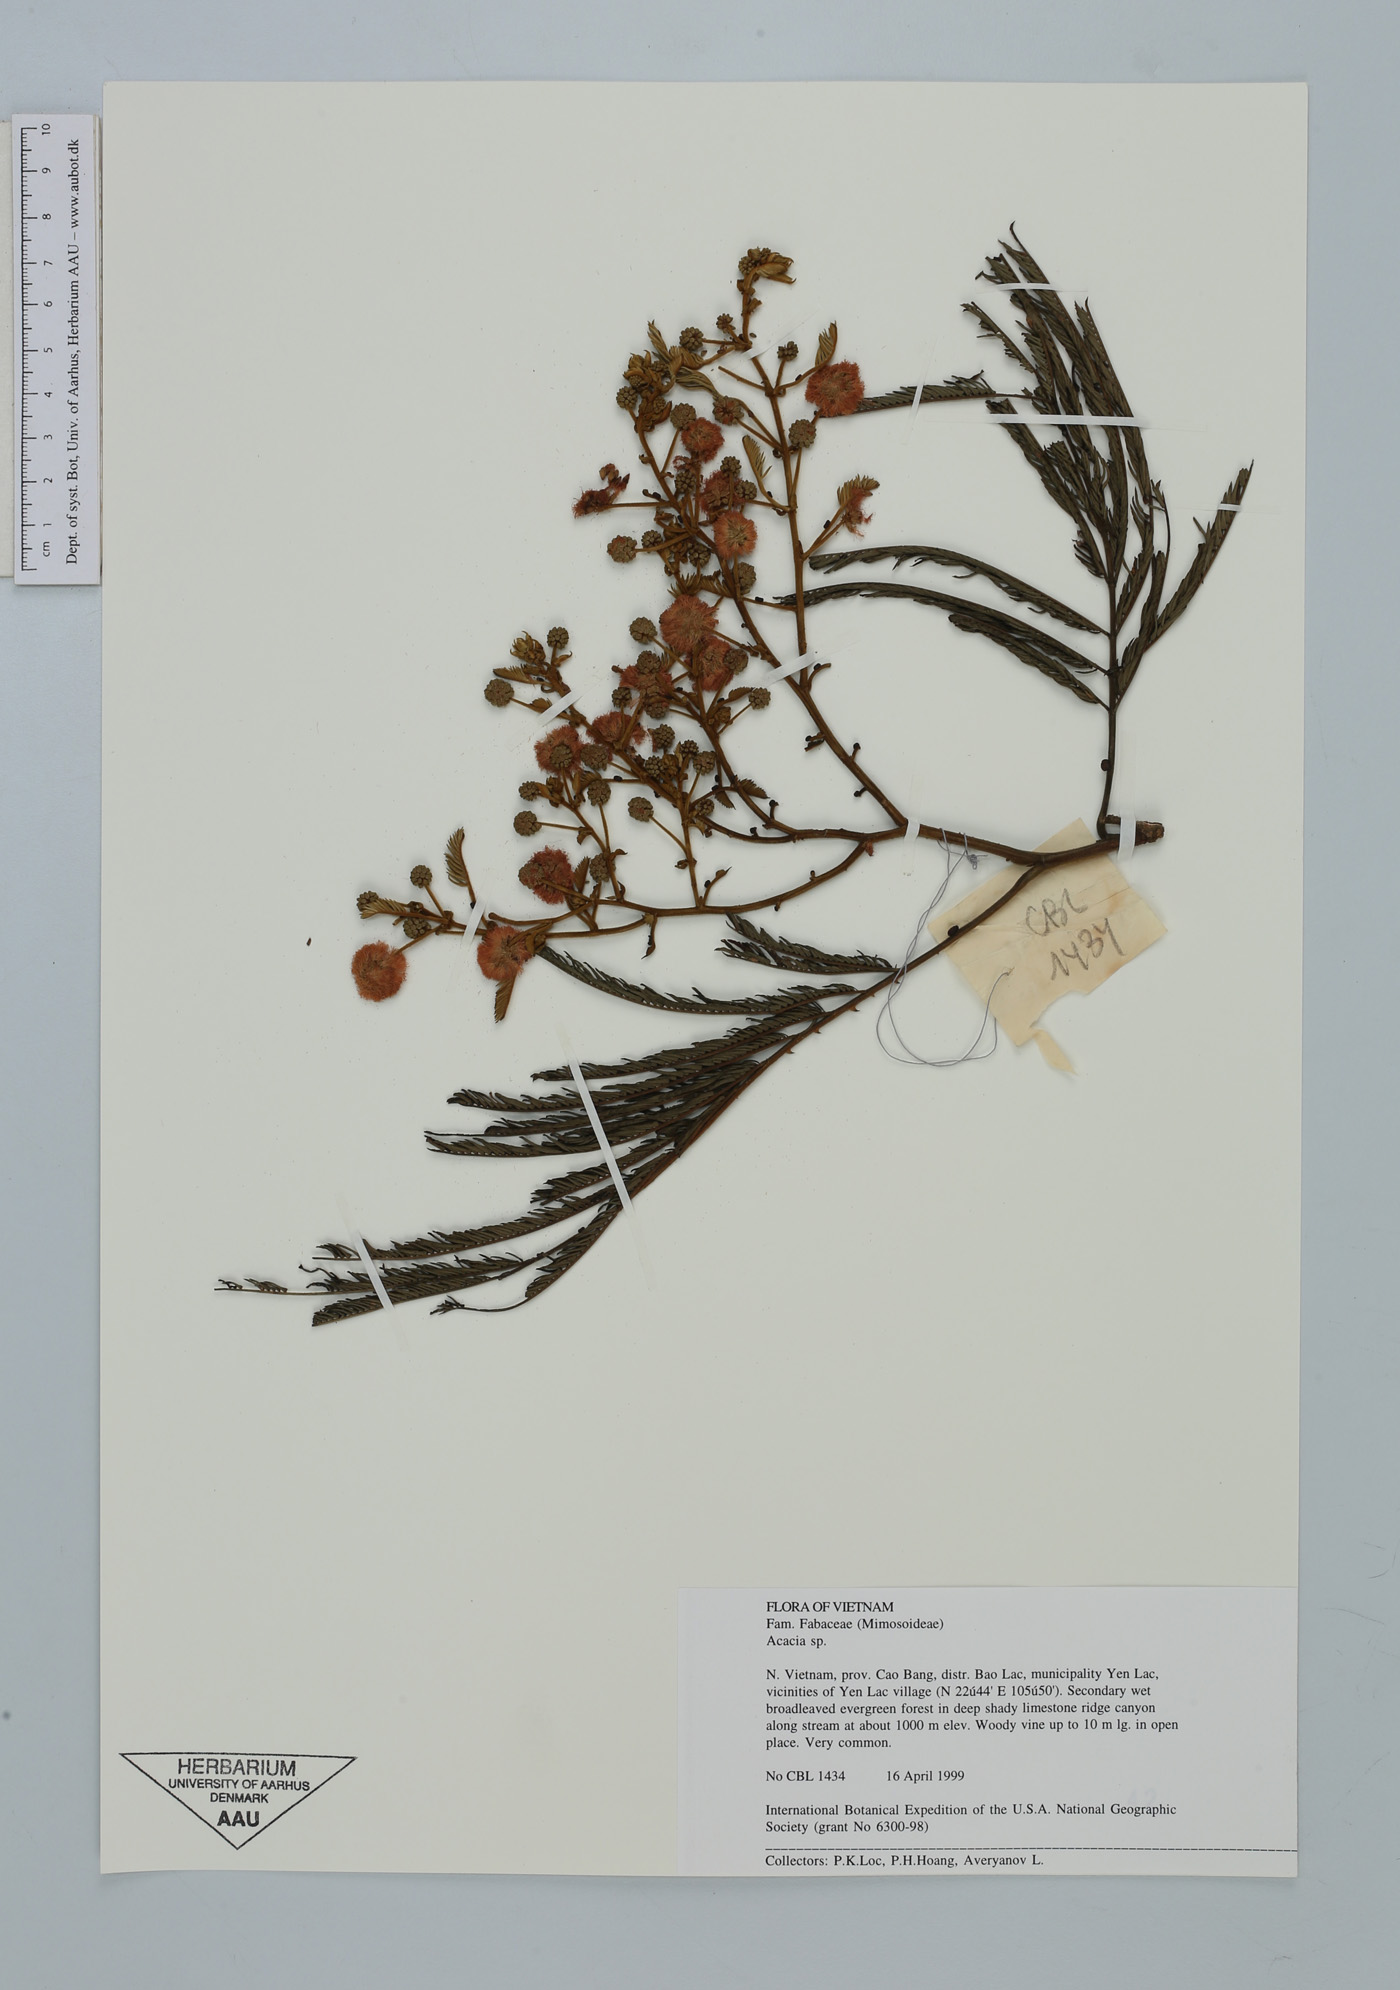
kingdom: Plantae
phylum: Tracheophyta
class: Magnoliopsida
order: Fabales
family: Fabaceae
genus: Acacia
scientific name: Acacia
